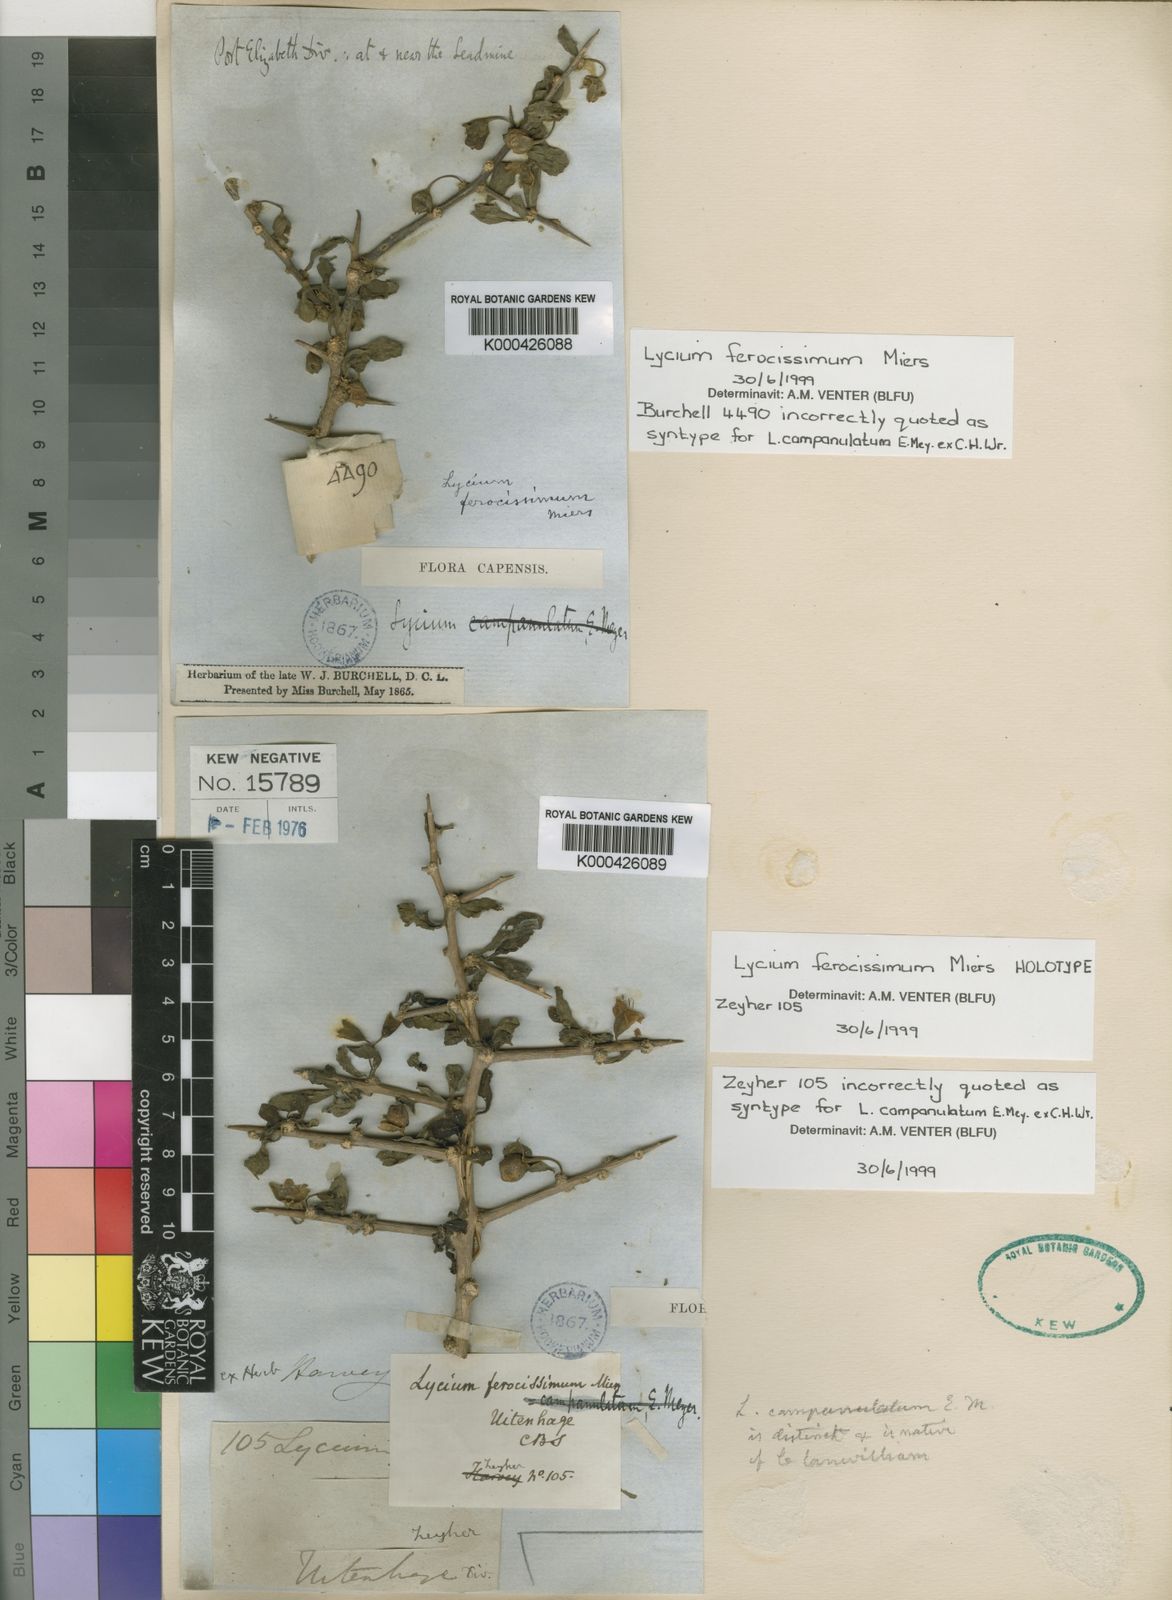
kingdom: Plantae
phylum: Tracheophyta
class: Magnoliopsida
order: Solanales
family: Solanaceae
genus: Lycium
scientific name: Lycium ferocissimum
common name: African boxthorn
